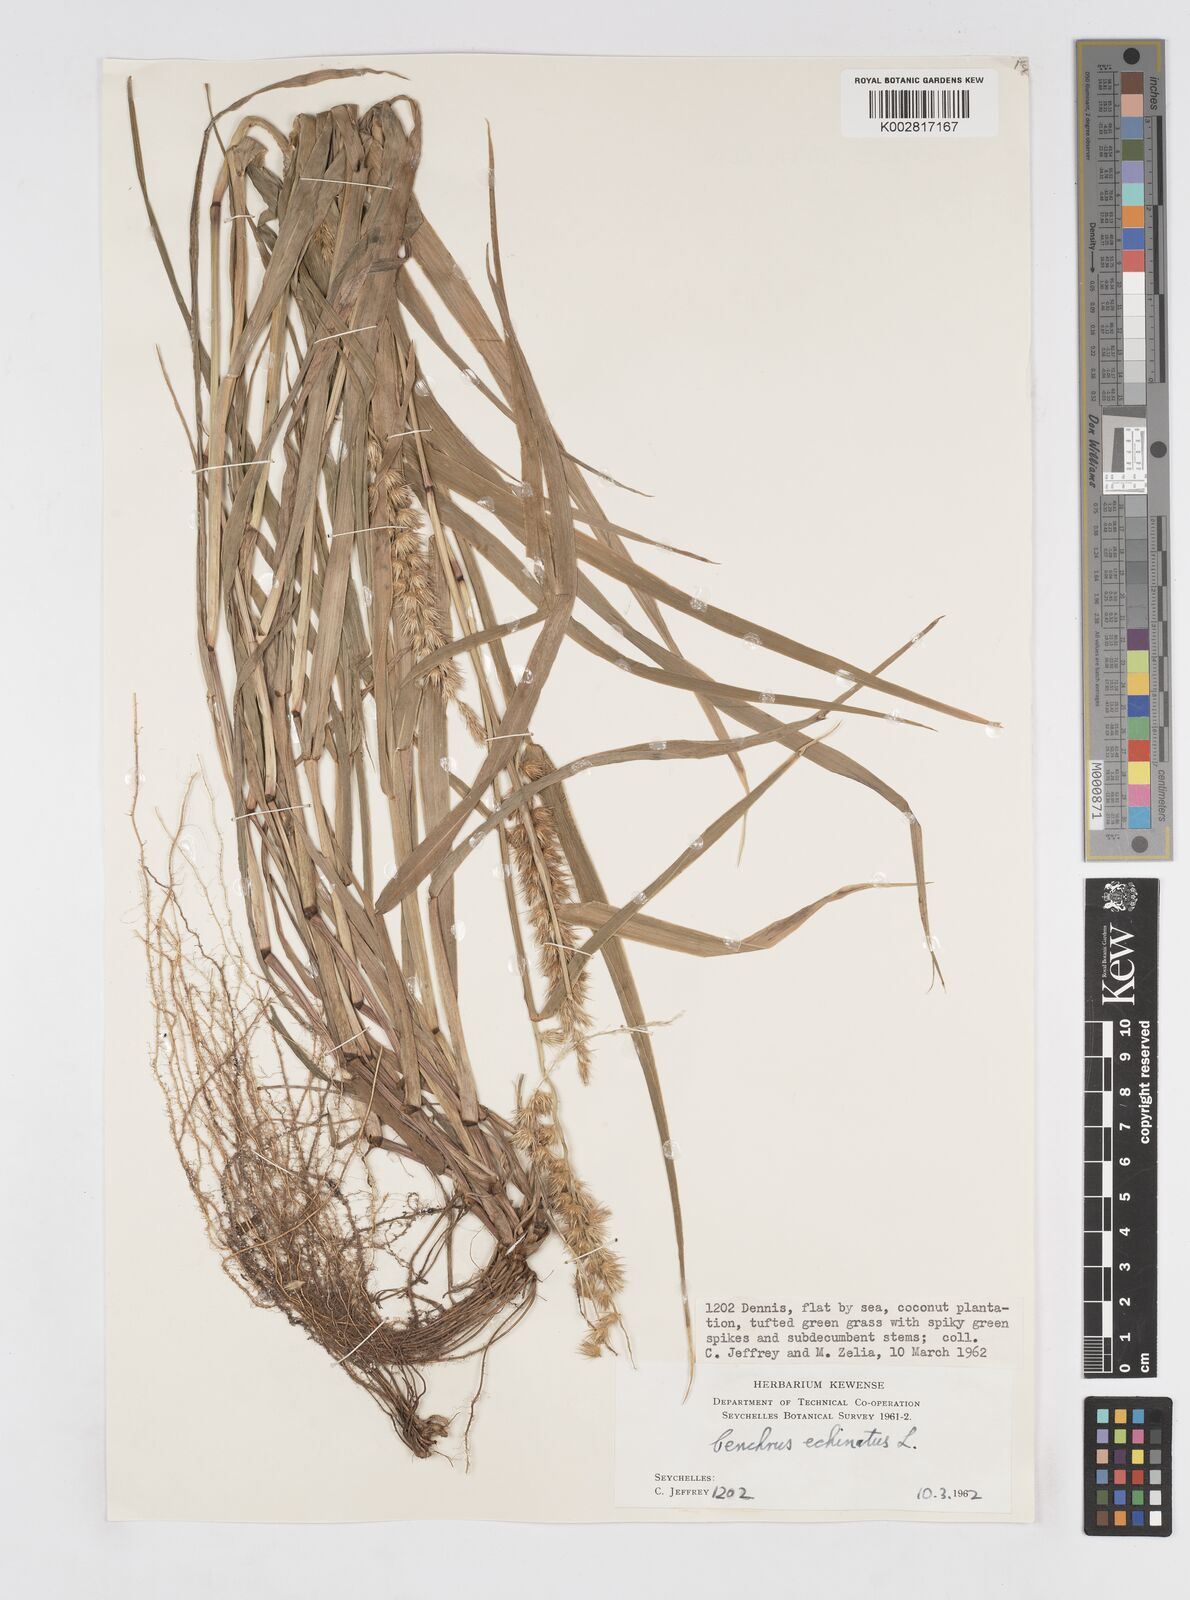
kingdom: Plantae
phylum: Tracheophyta
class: Liliopsida
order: Poales
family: Poaceae
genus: Cenchrus
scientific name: Cenchrus echinatus
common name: Southern sandbur
